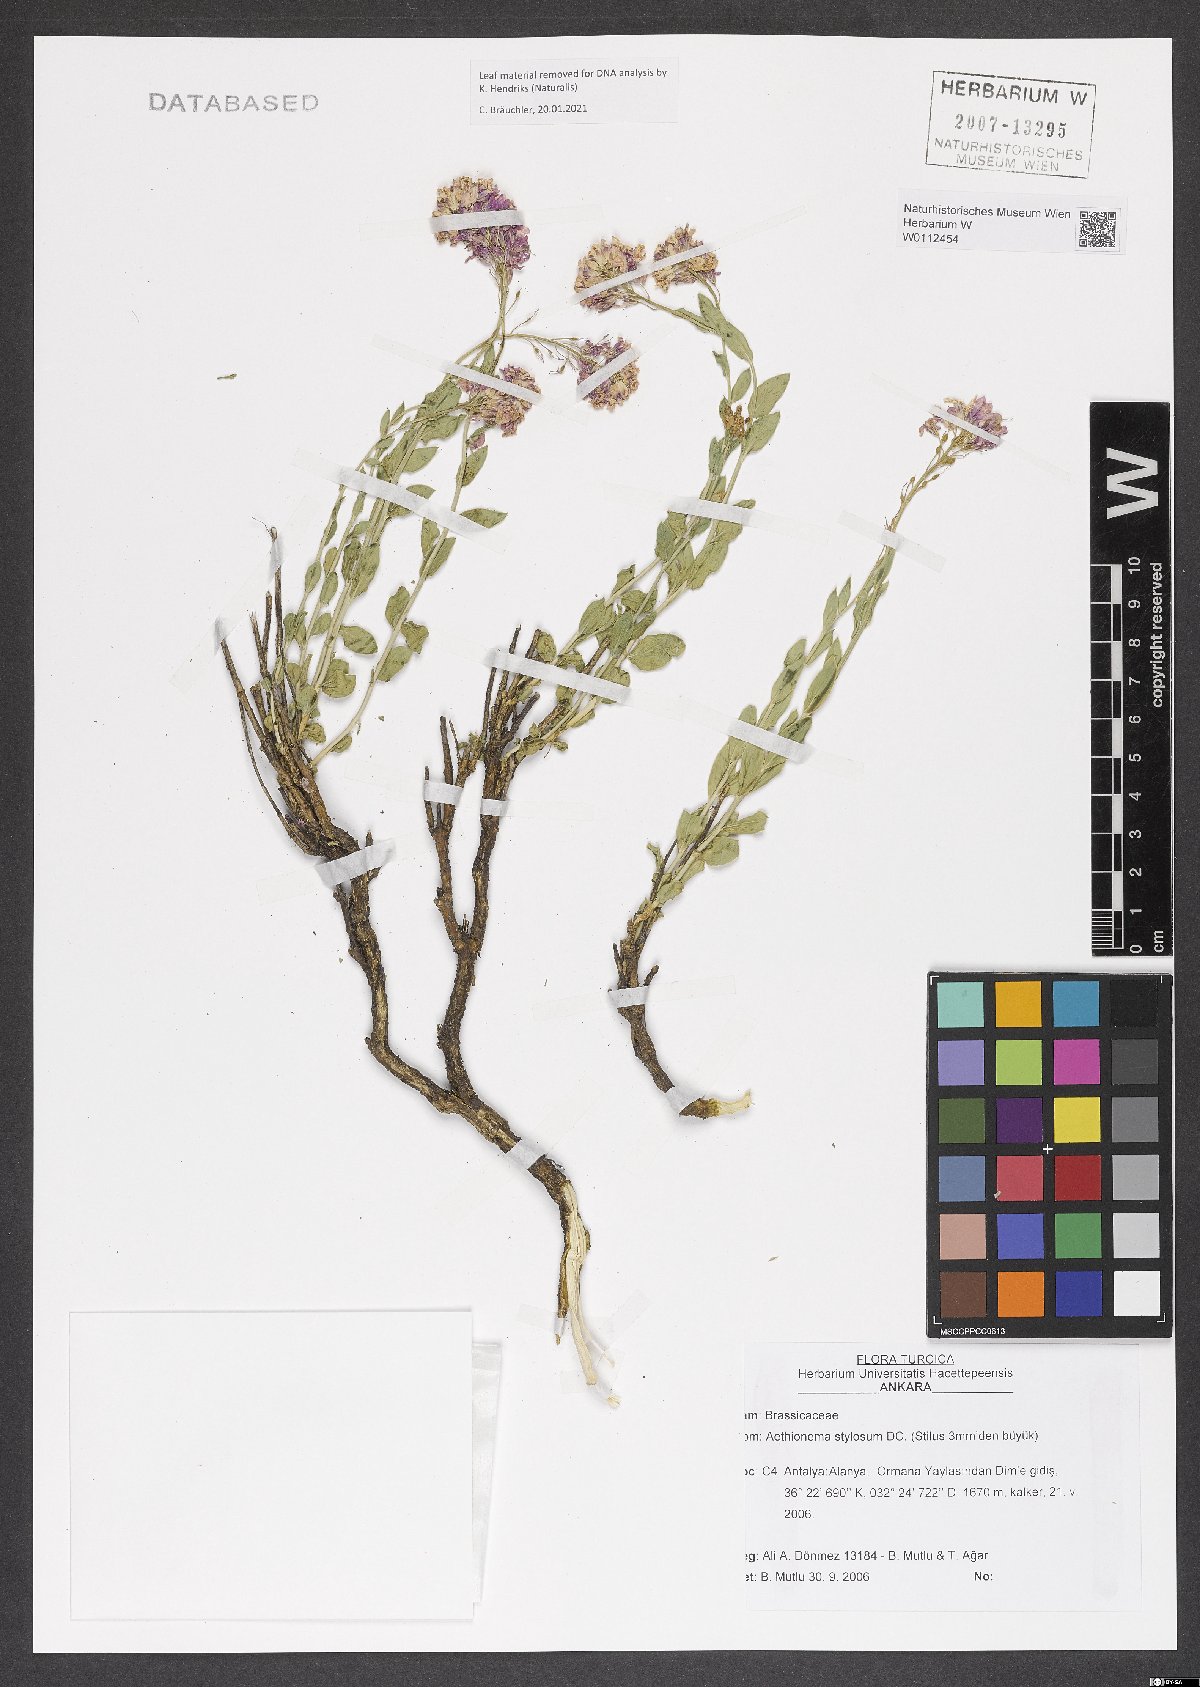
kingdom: Plantae
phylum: Tracheophyta
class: Magnoliopsida
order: Brassicales
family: Brassicaceae
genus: Aethionema
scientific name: Aethionema stylosum
